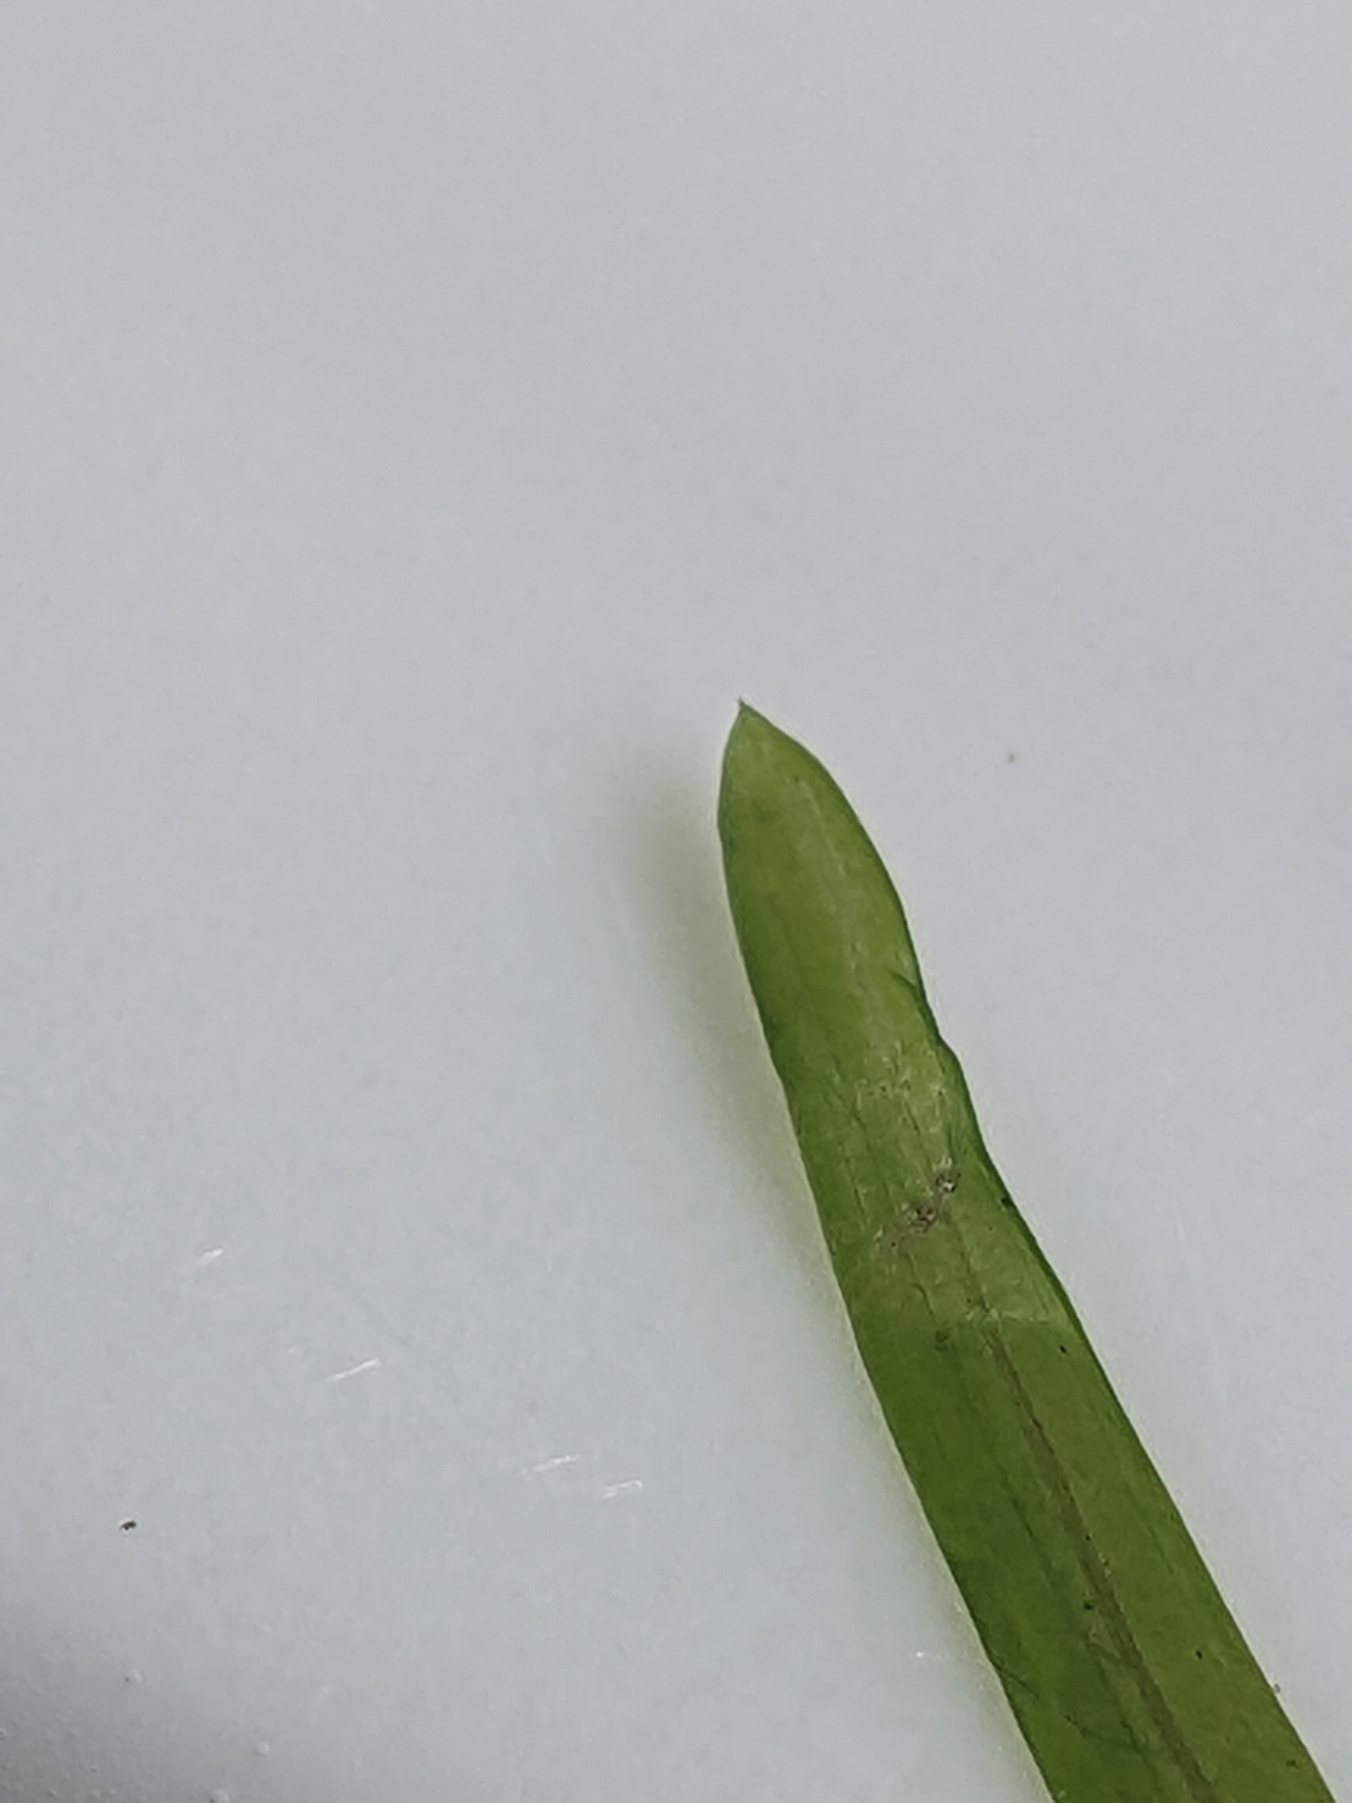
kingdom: Plantae
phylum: Tracheophyta
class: Liliopsida
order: Alismatales
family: Potamogetonaceae
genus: Potamogeton
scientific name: Potamogeton compressus
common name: Bændel-vandaks
